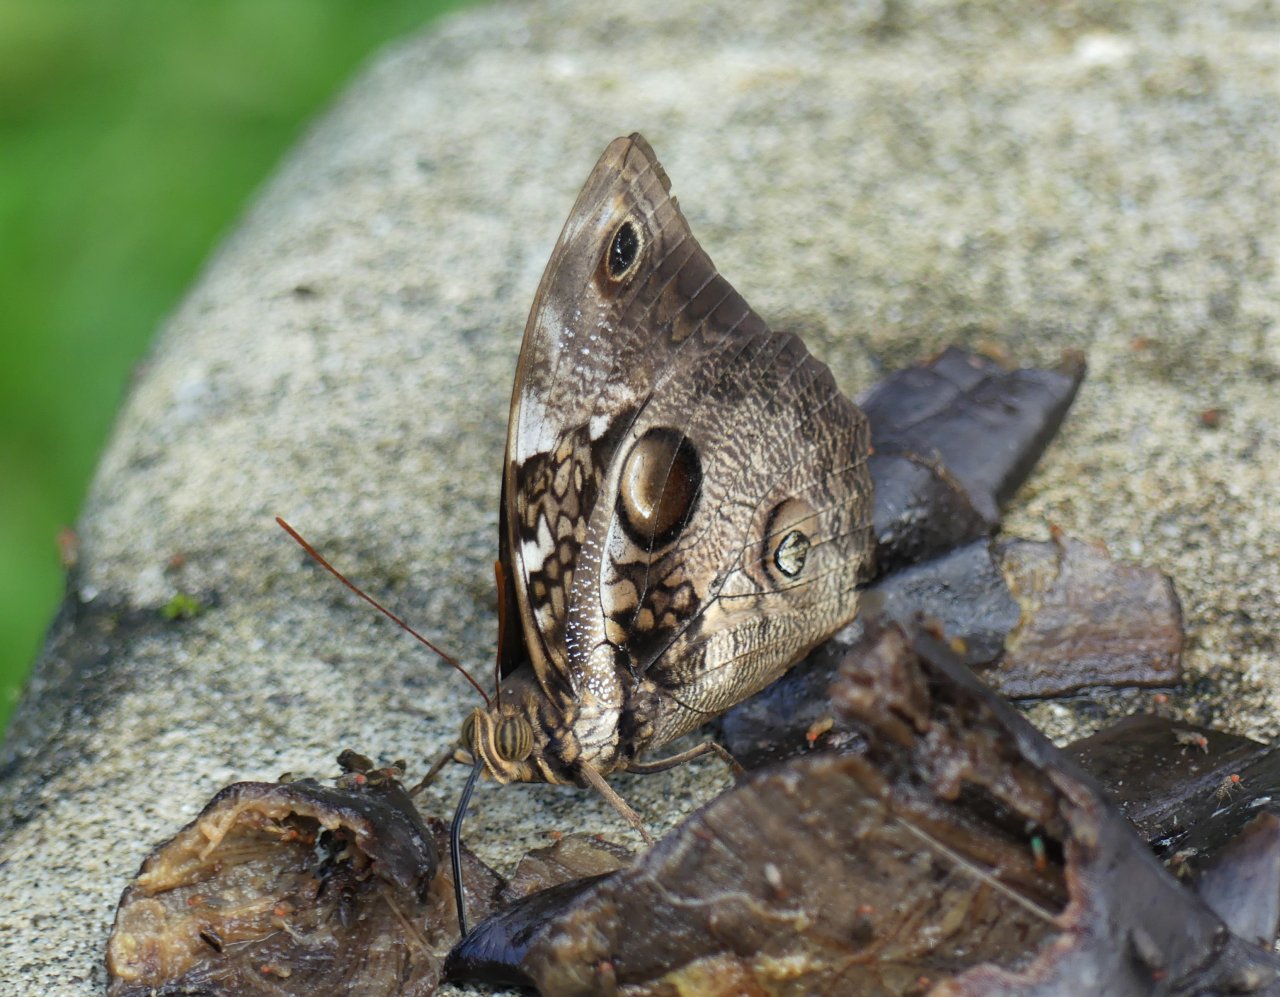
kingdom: Animalia
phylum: Arthropoda
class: Insecta
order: Lepidoptera
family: Nymphalidae
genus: Opsiphanes
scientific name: Opsiphanes quiteria
